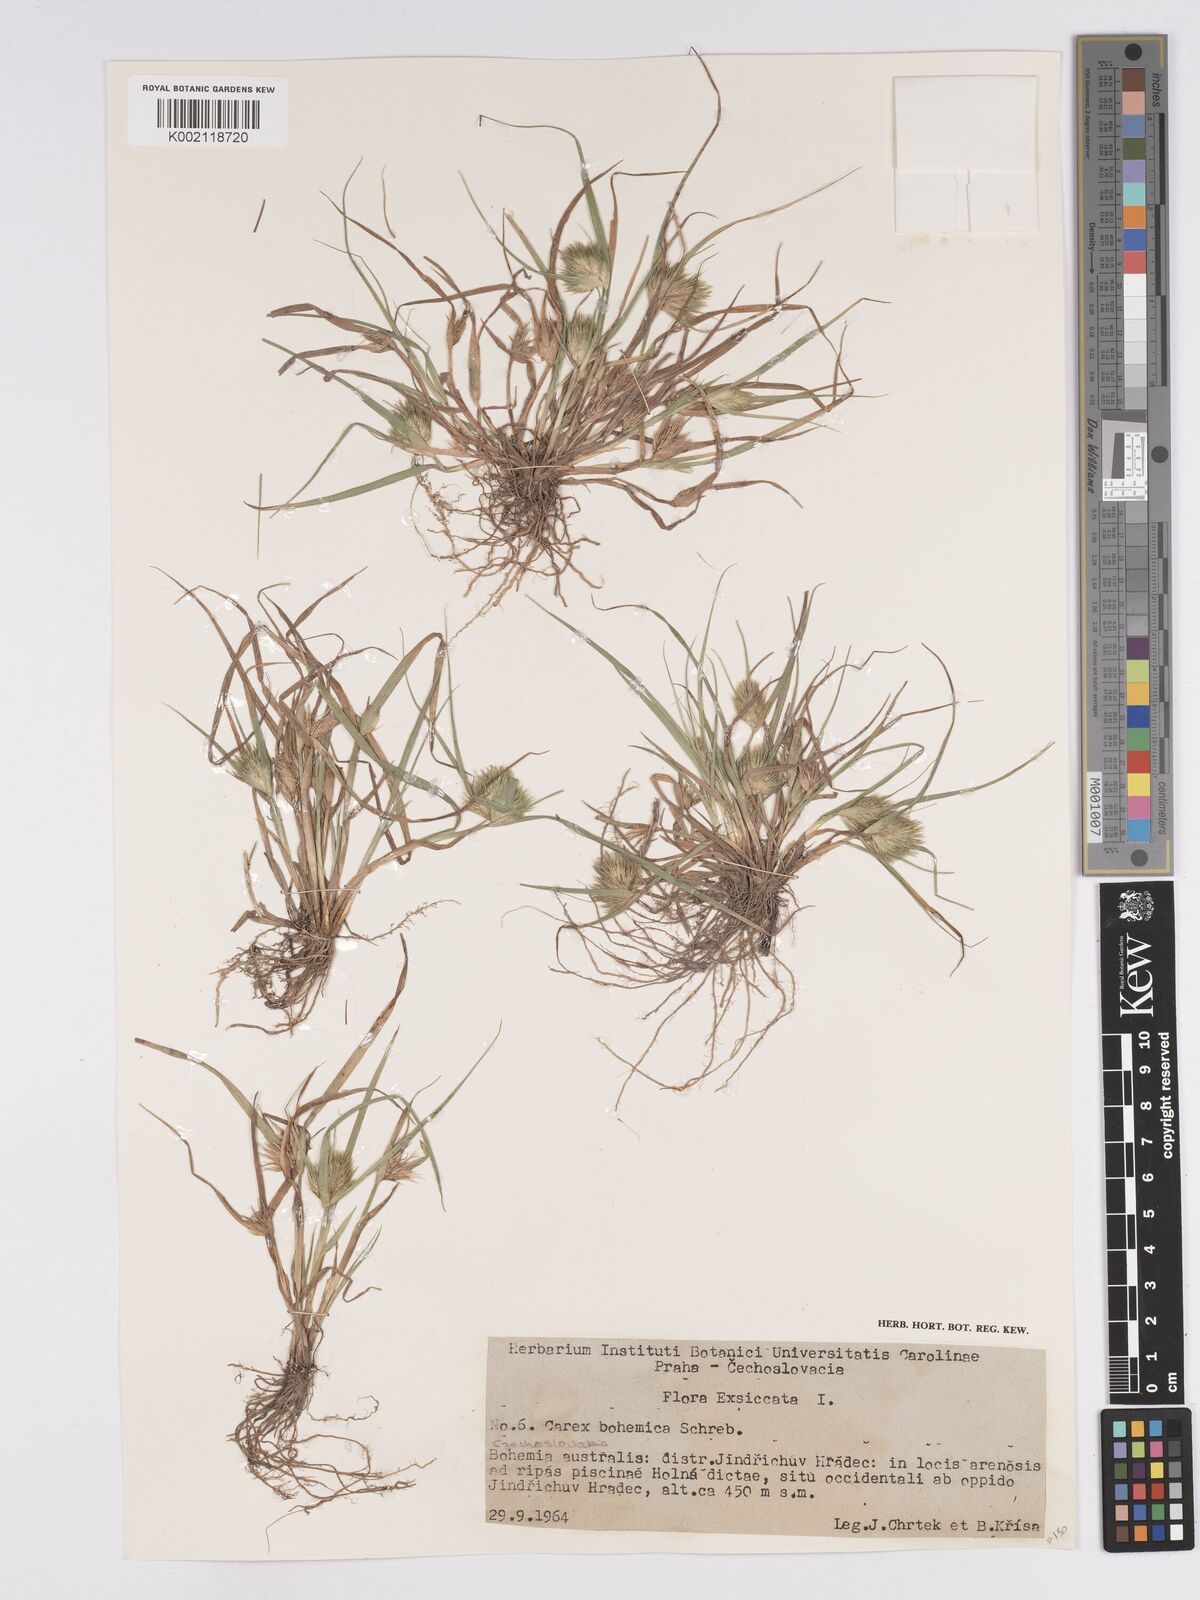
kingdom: Plantae
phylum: Tracheophyta
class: Liliopsida
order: Poales
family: Cyperaceae
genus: Carex
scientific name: Carex bohemica
